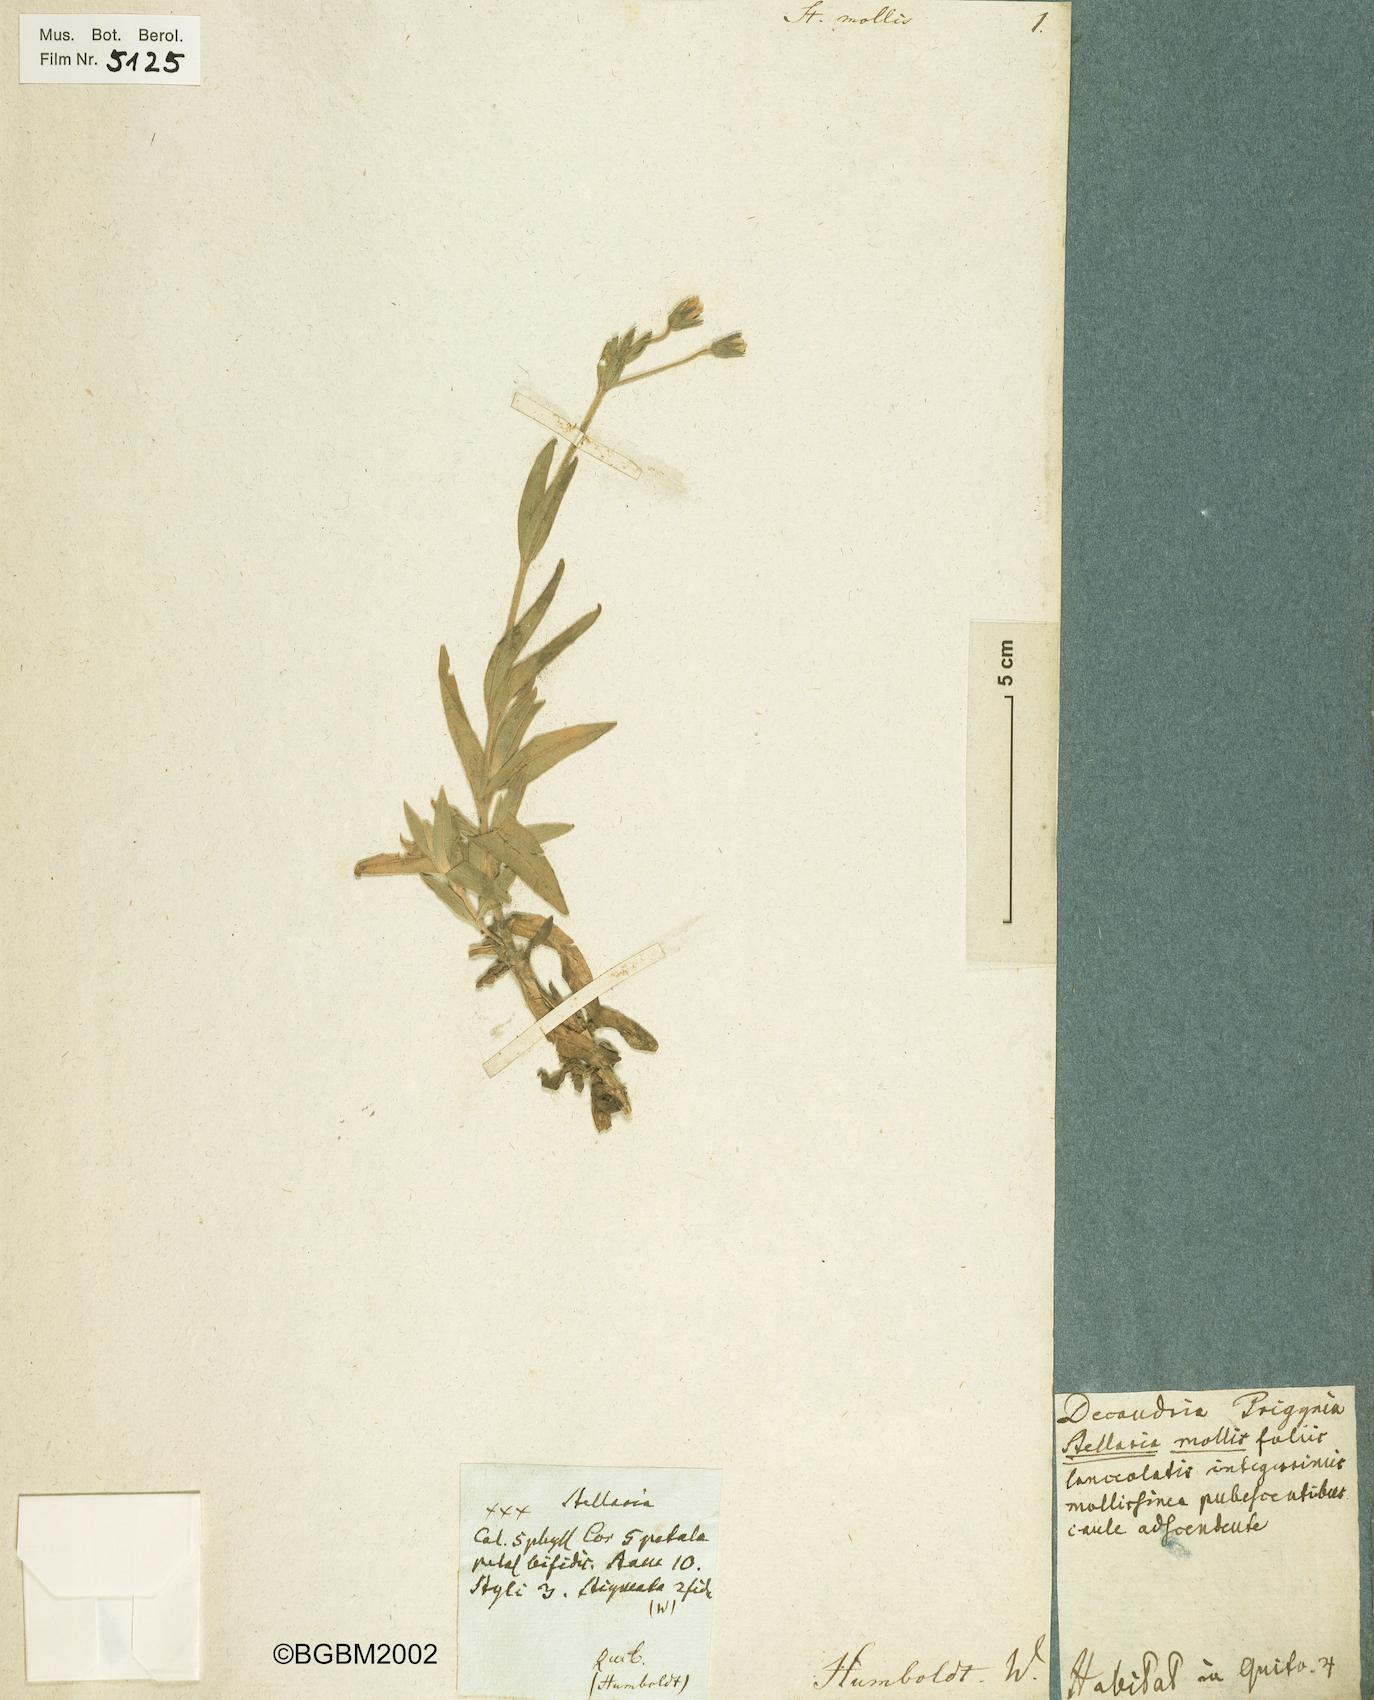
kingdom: Plantae
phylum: Tracheophyta
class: Magnoliopsida
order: Caryophyllales
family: Caryophyllaceae
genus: Cerastium
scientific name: Cerastium mollissimum
